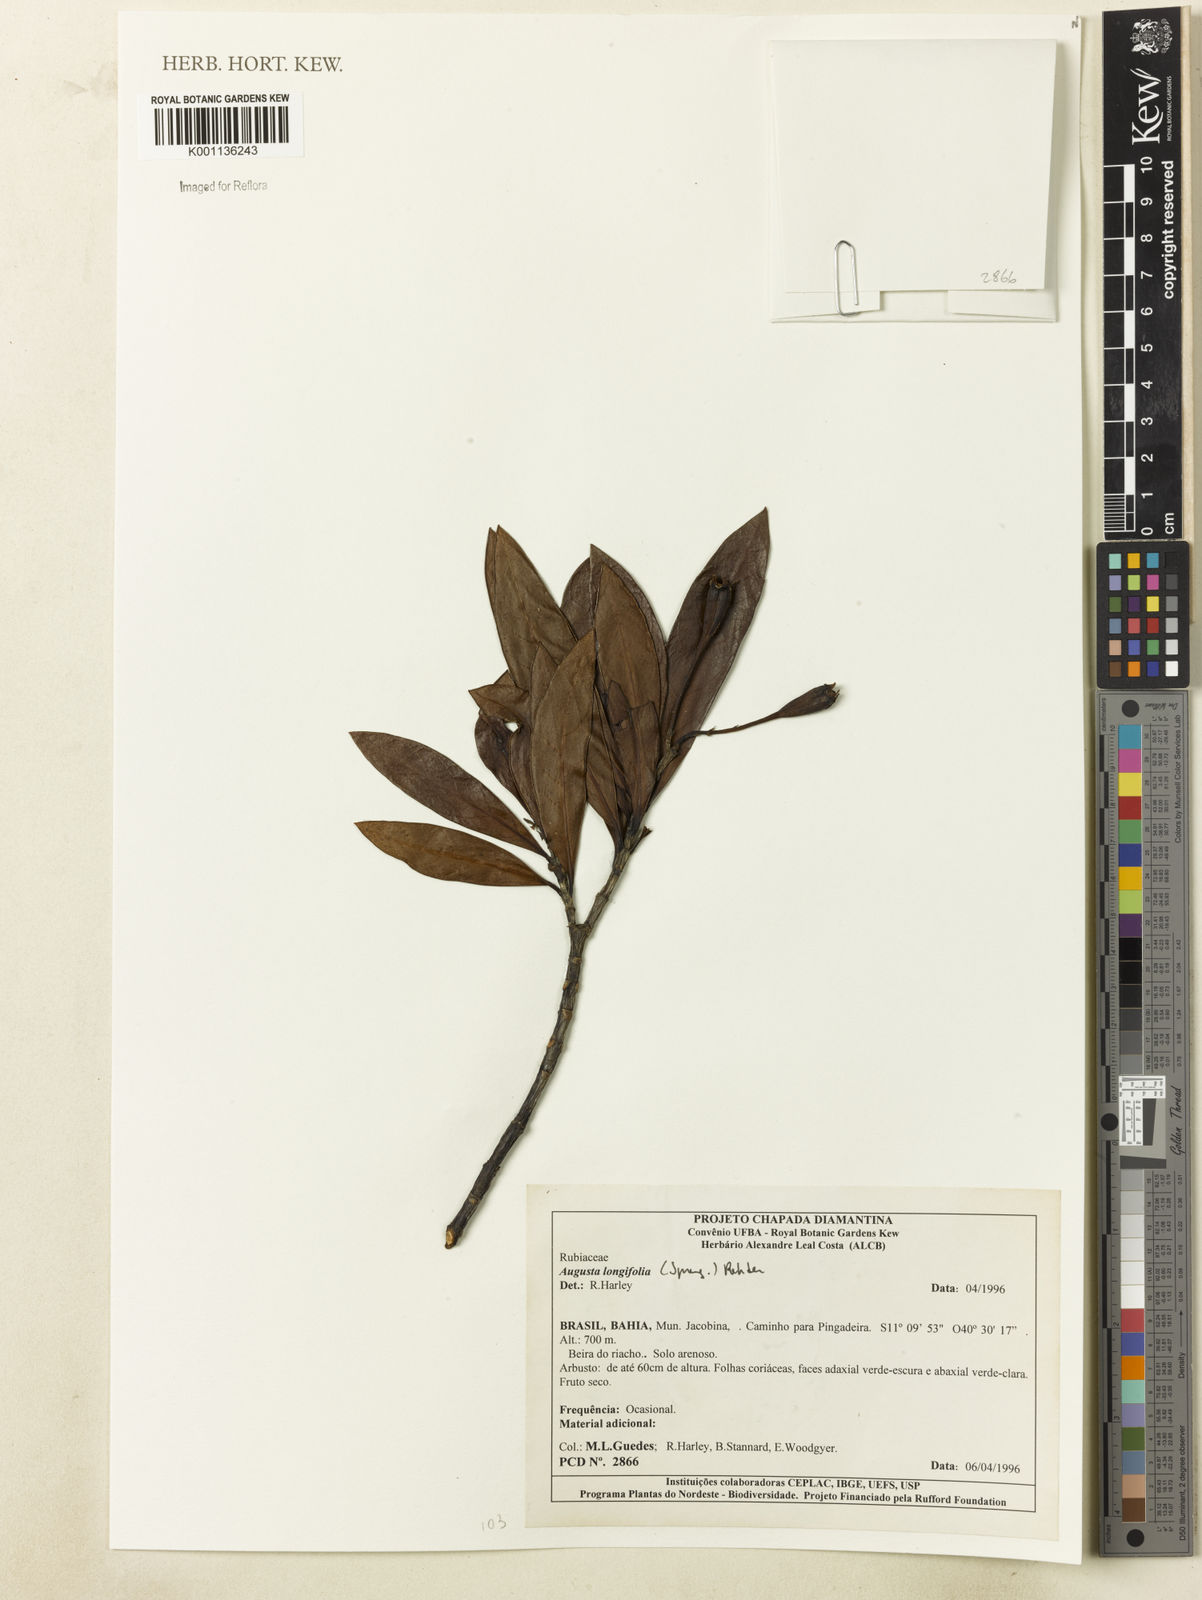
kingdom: Plantae
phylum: Tracheophyta
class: Magnoliopsida
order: Gentianales
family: Rubiaceae
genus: Augusta
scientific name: Augusta longifolia
